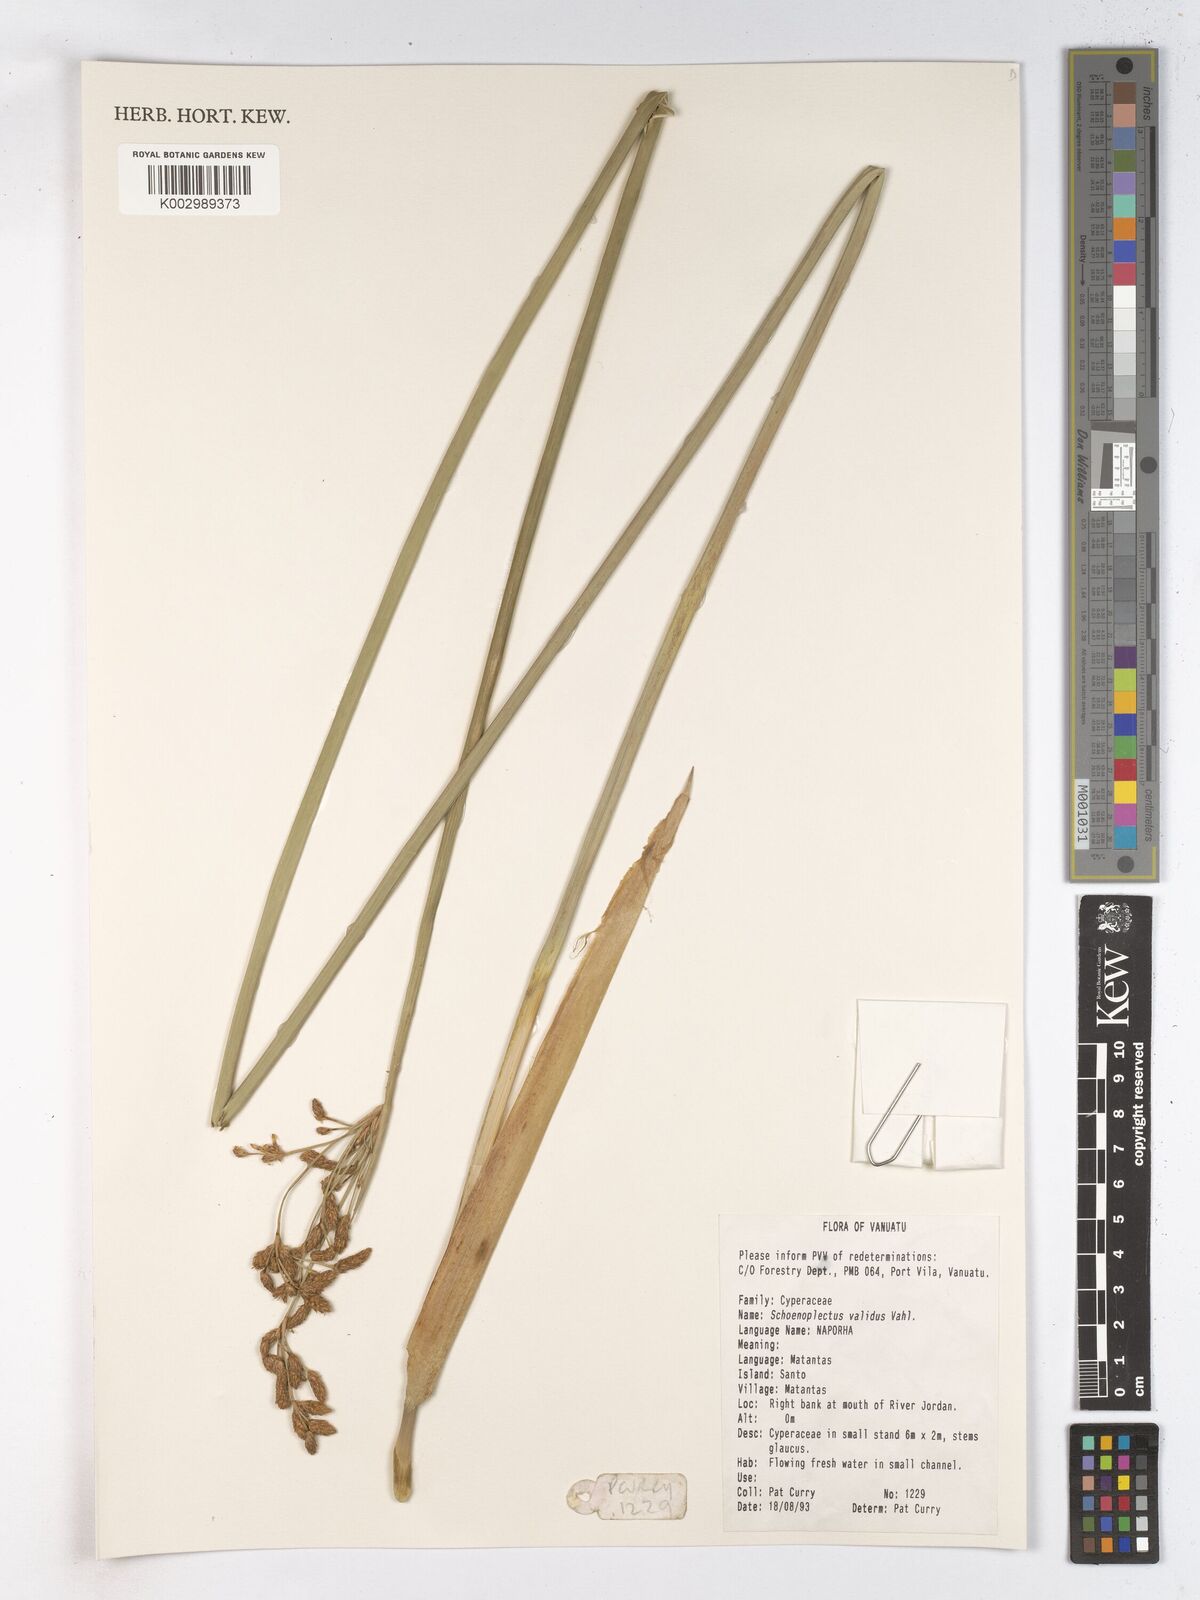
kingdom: Plantae
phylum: Tracheophyta
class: Liliopsida
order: Poales
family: Cyperaceae
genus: Schoenoplectus
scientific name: Schoenoplectus tabernaemontani
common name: Grey club-rush
